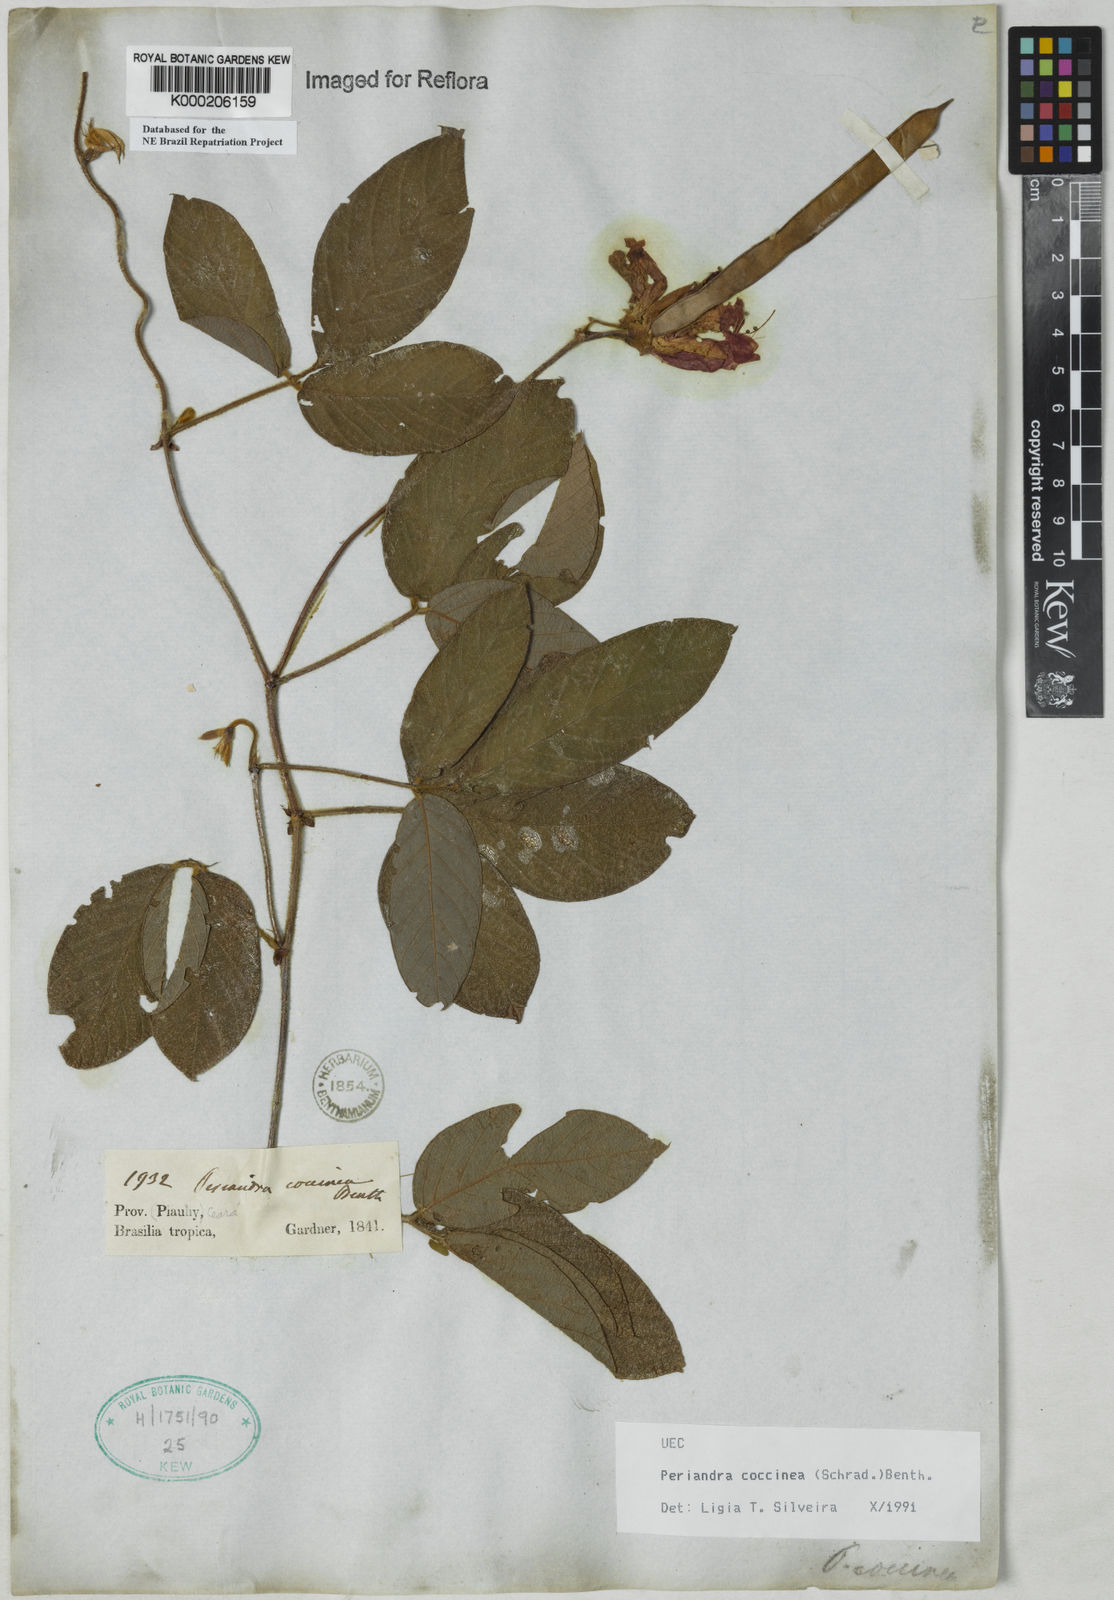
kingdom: Plantae
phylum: Tracheophyta
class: Magnoliopsida
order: Fabales
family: Fabaceae
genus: Periandra
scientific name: Periandra coccinea
